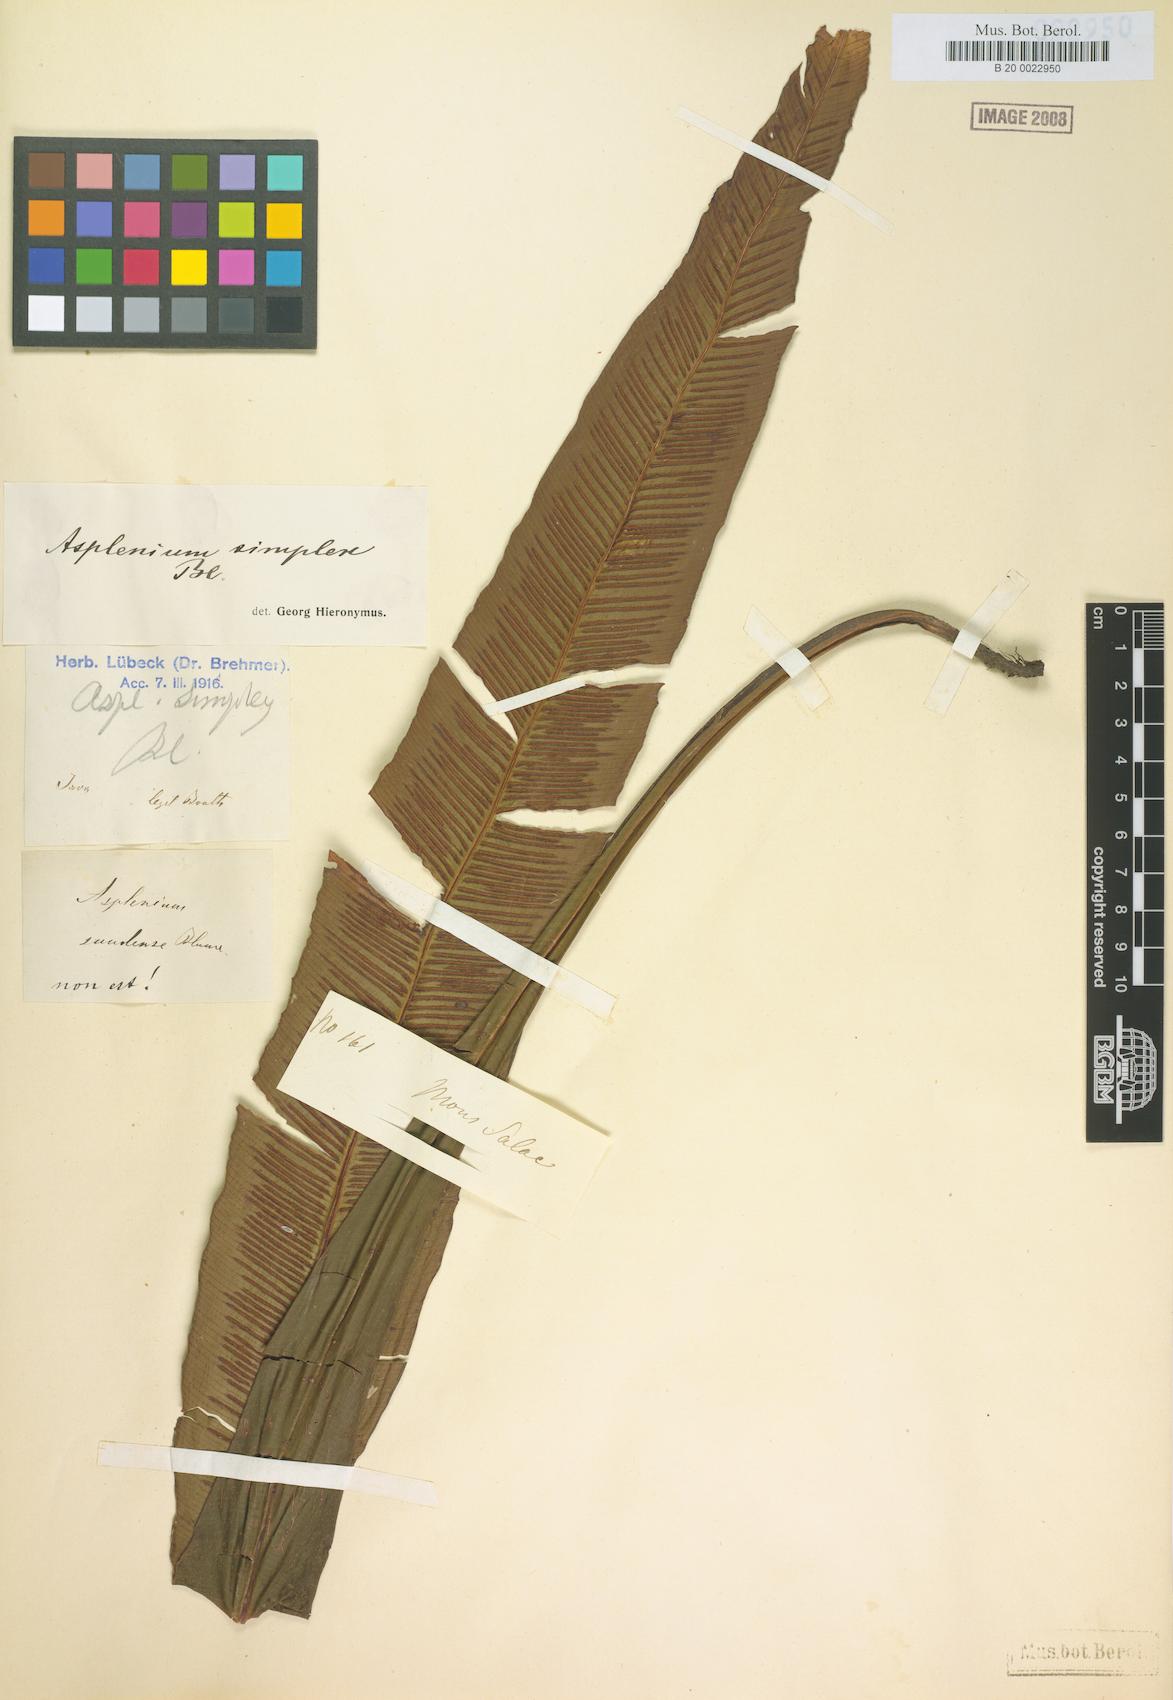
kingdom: Plantae
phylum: Tracheophyta
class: Polypodiopsida
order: Polypodiales
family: Thelypteridaceae
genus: Grypothrix
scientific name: Grypothrix simplex
